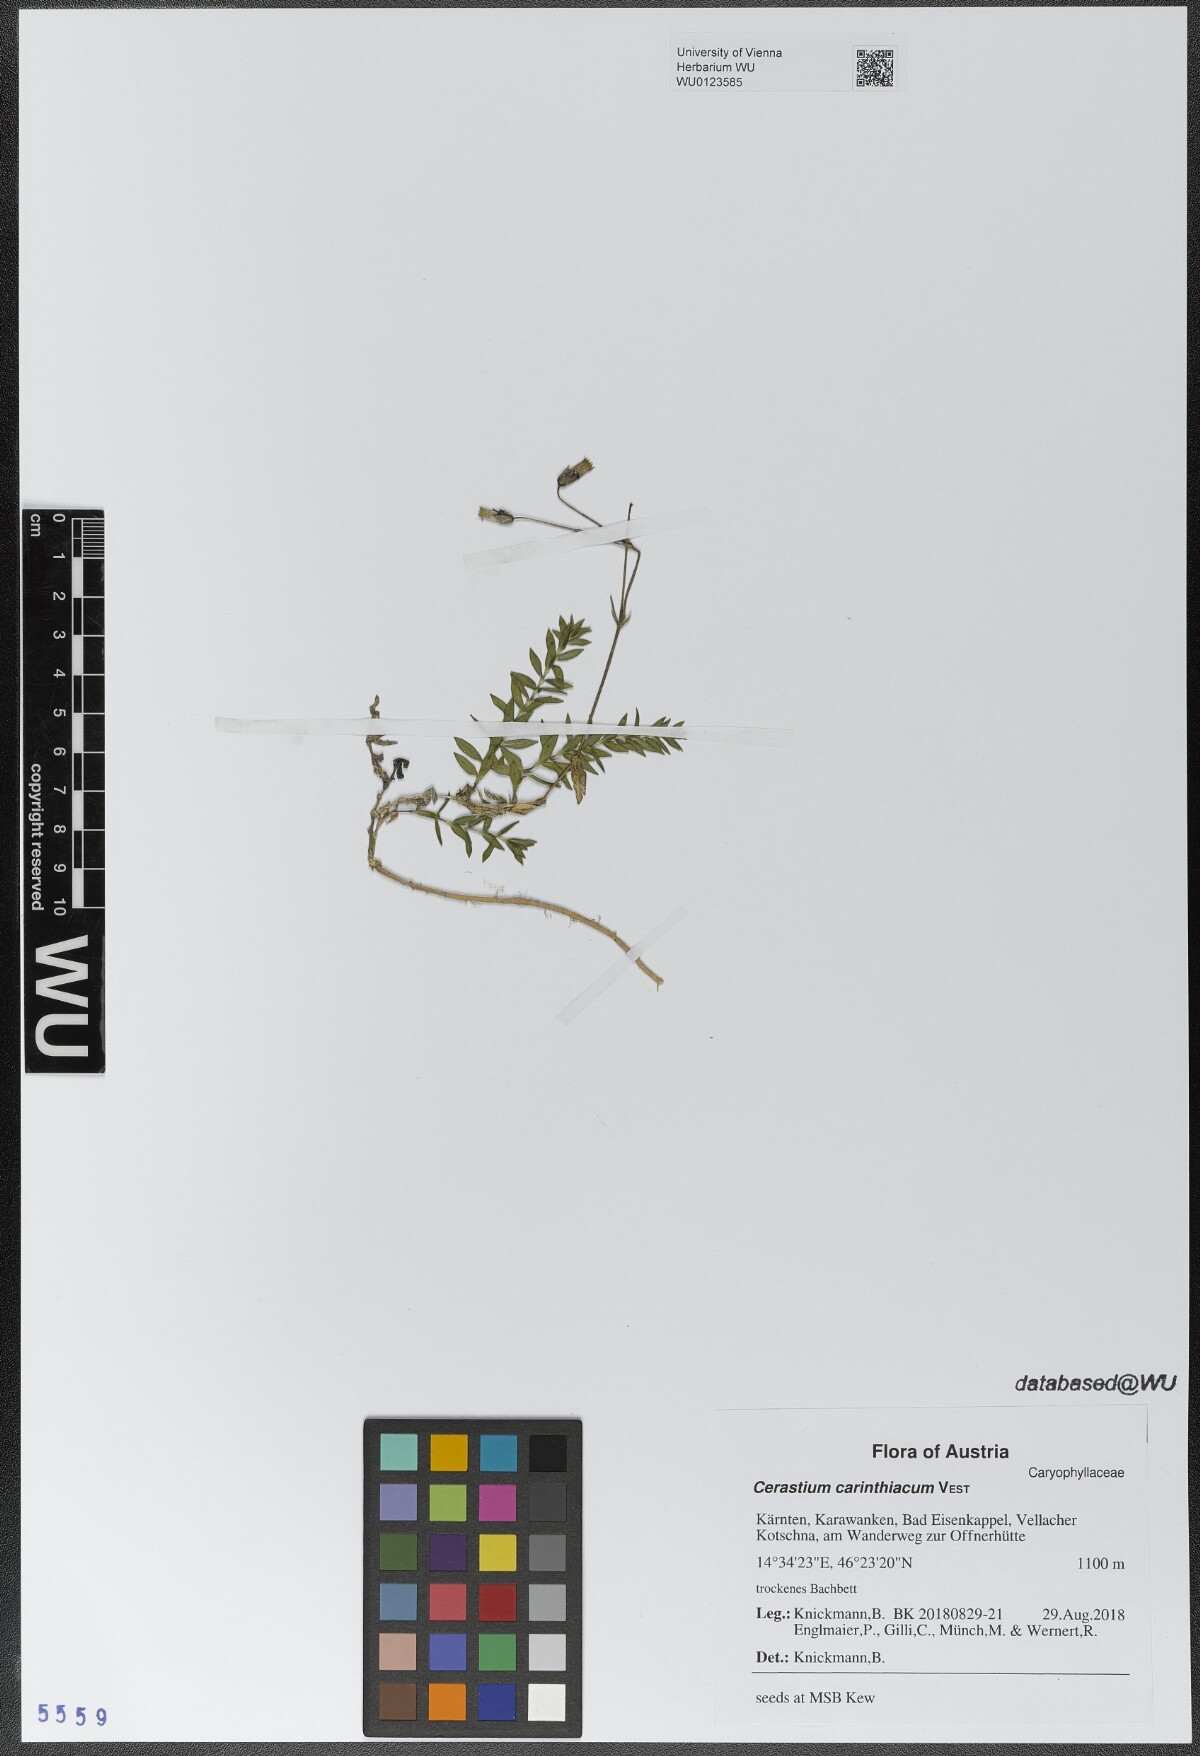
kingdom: Plantae
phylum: Tracheophyta
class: Magnoliopsida
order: Caryophyllales
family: Caryophyllaceae
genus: Cerastium
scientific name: Cerastium carinthiacum
